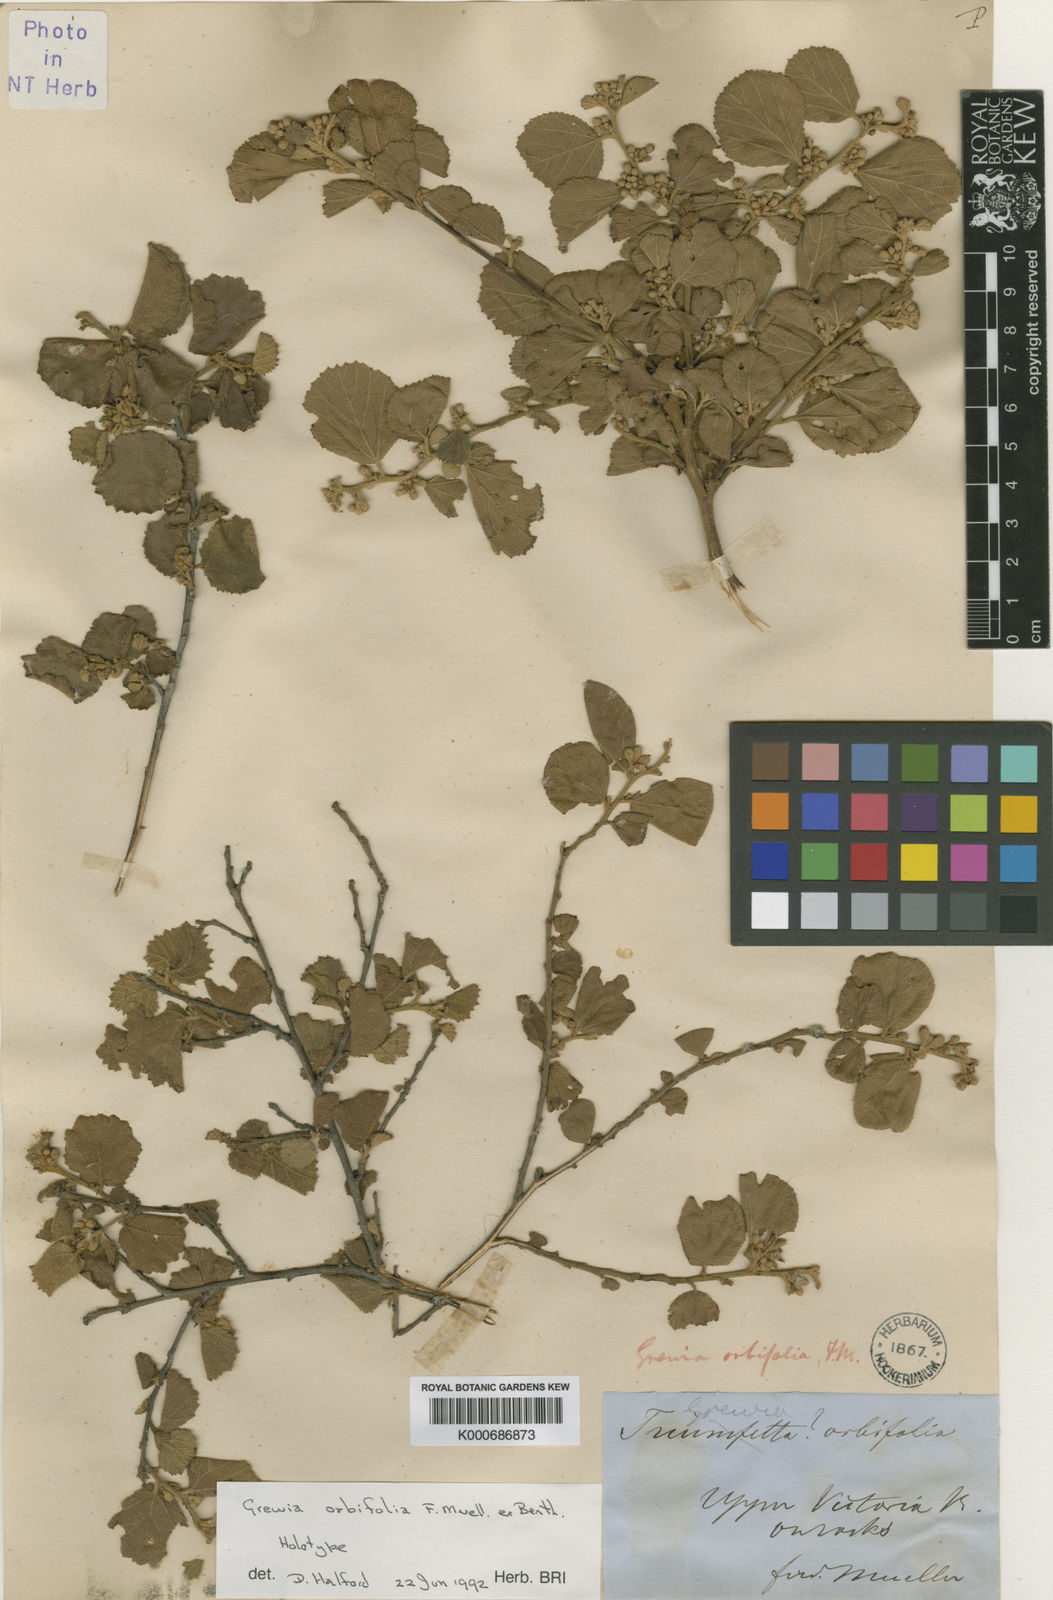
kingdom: Plantae
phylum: Tracheophyta
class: Magnoliopsida
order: Malvales
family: Malvaceae
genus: Grewia
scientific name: Grewia orbifolia
